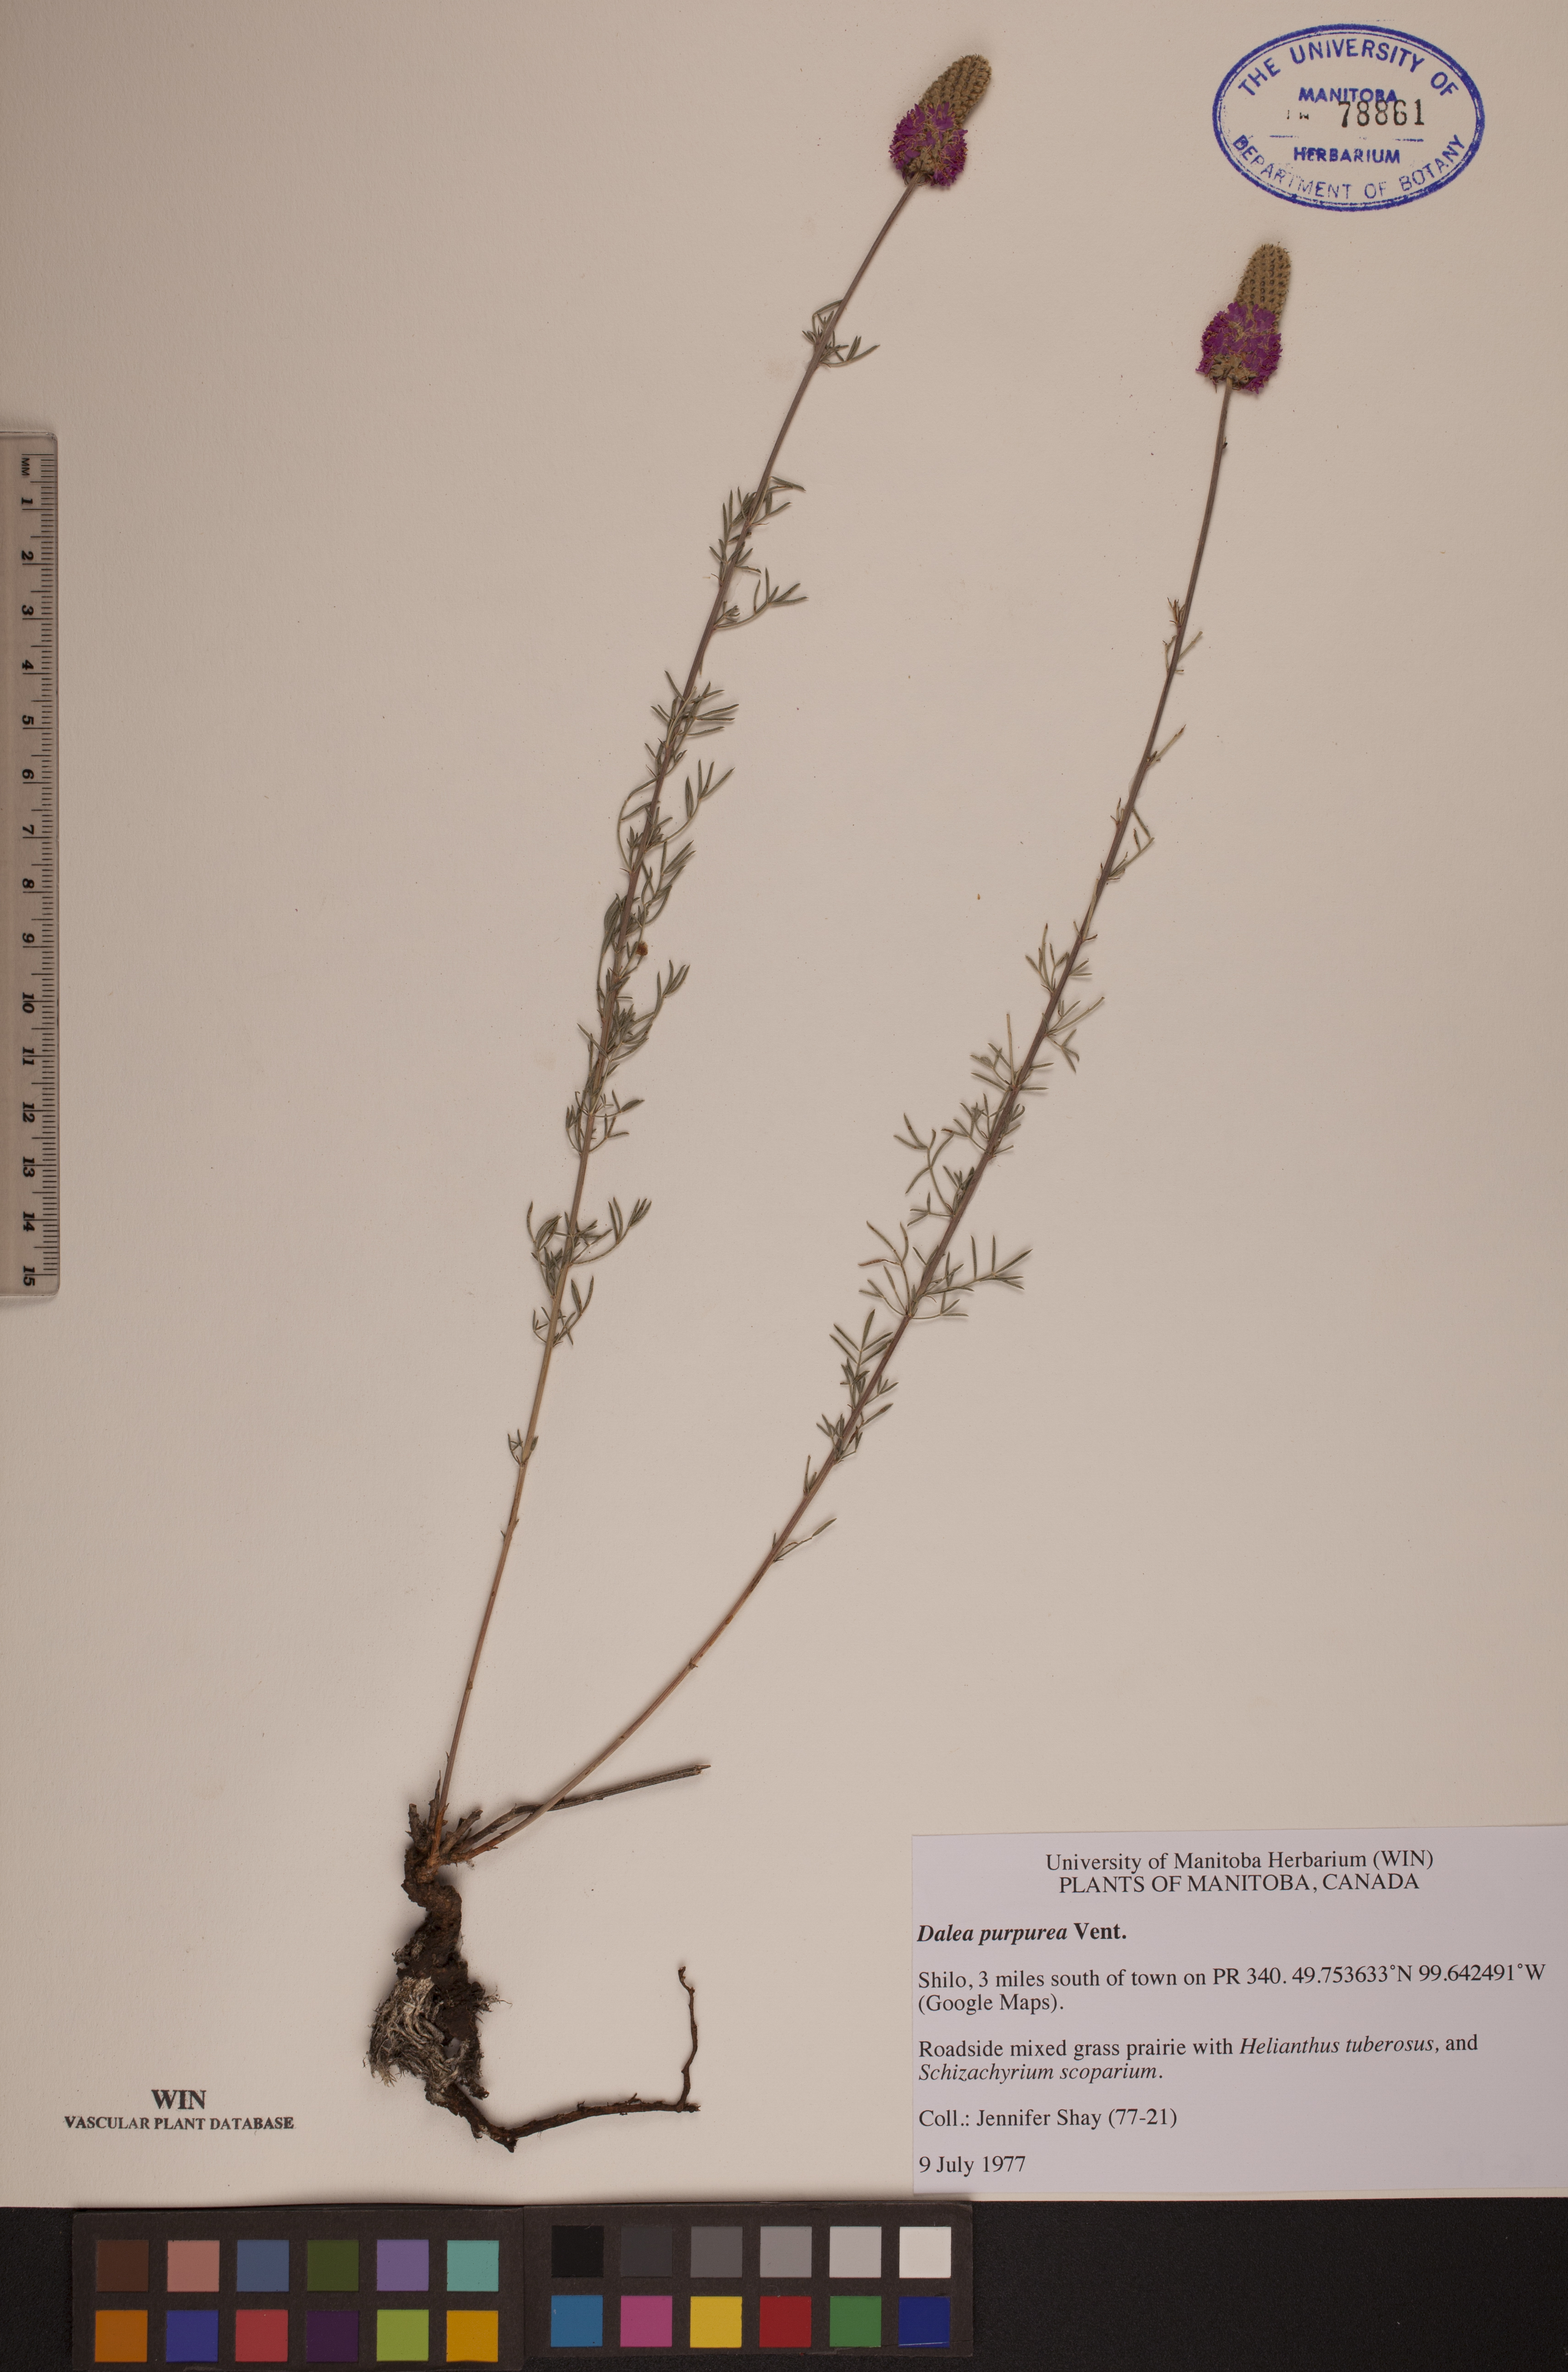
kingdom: Plantae
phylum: Tracheophyta
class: Magnoliopsida
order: Fabales
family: Fabaceae
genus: Dalea
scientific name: Dalea purpurea
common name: Purple prairie-clover
